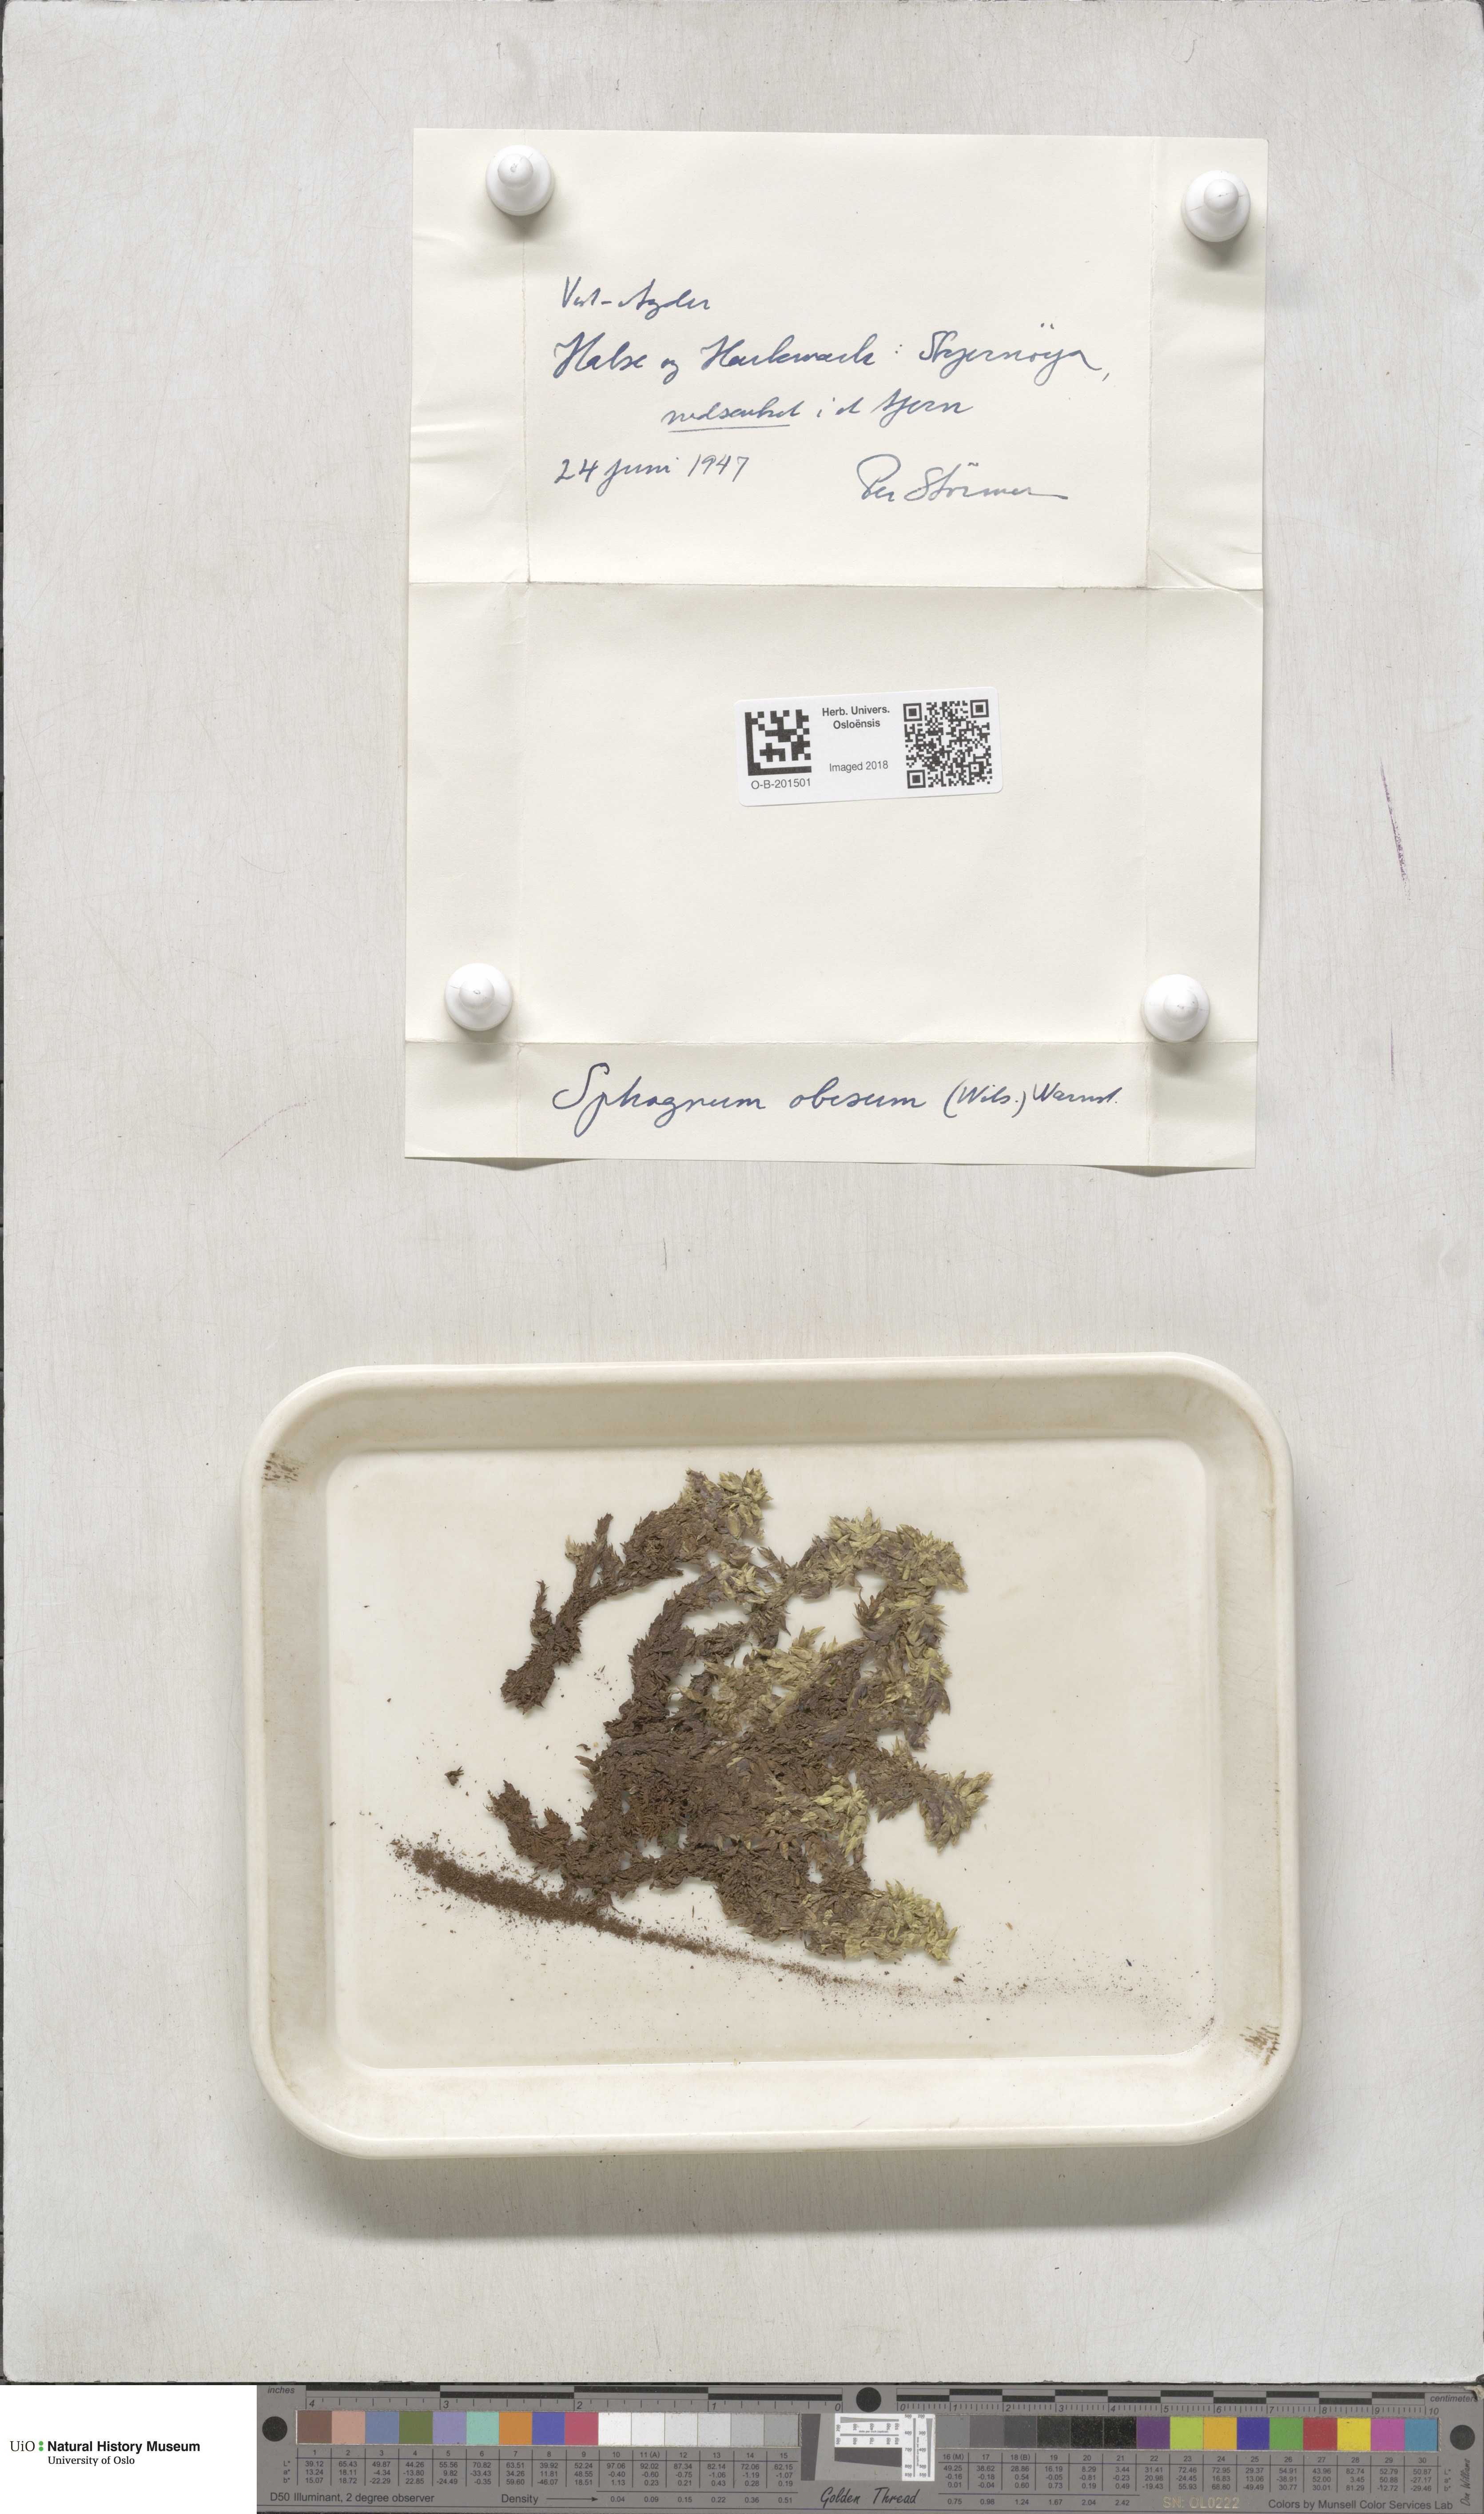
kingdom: Plantae
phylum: Bryophyta
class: Sphagnopsida
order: Sphagnales
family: Sphagnaceae
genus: Sphagnum
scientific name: Sphagnum inundatum
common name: Lesser cow-horn bog-moss
